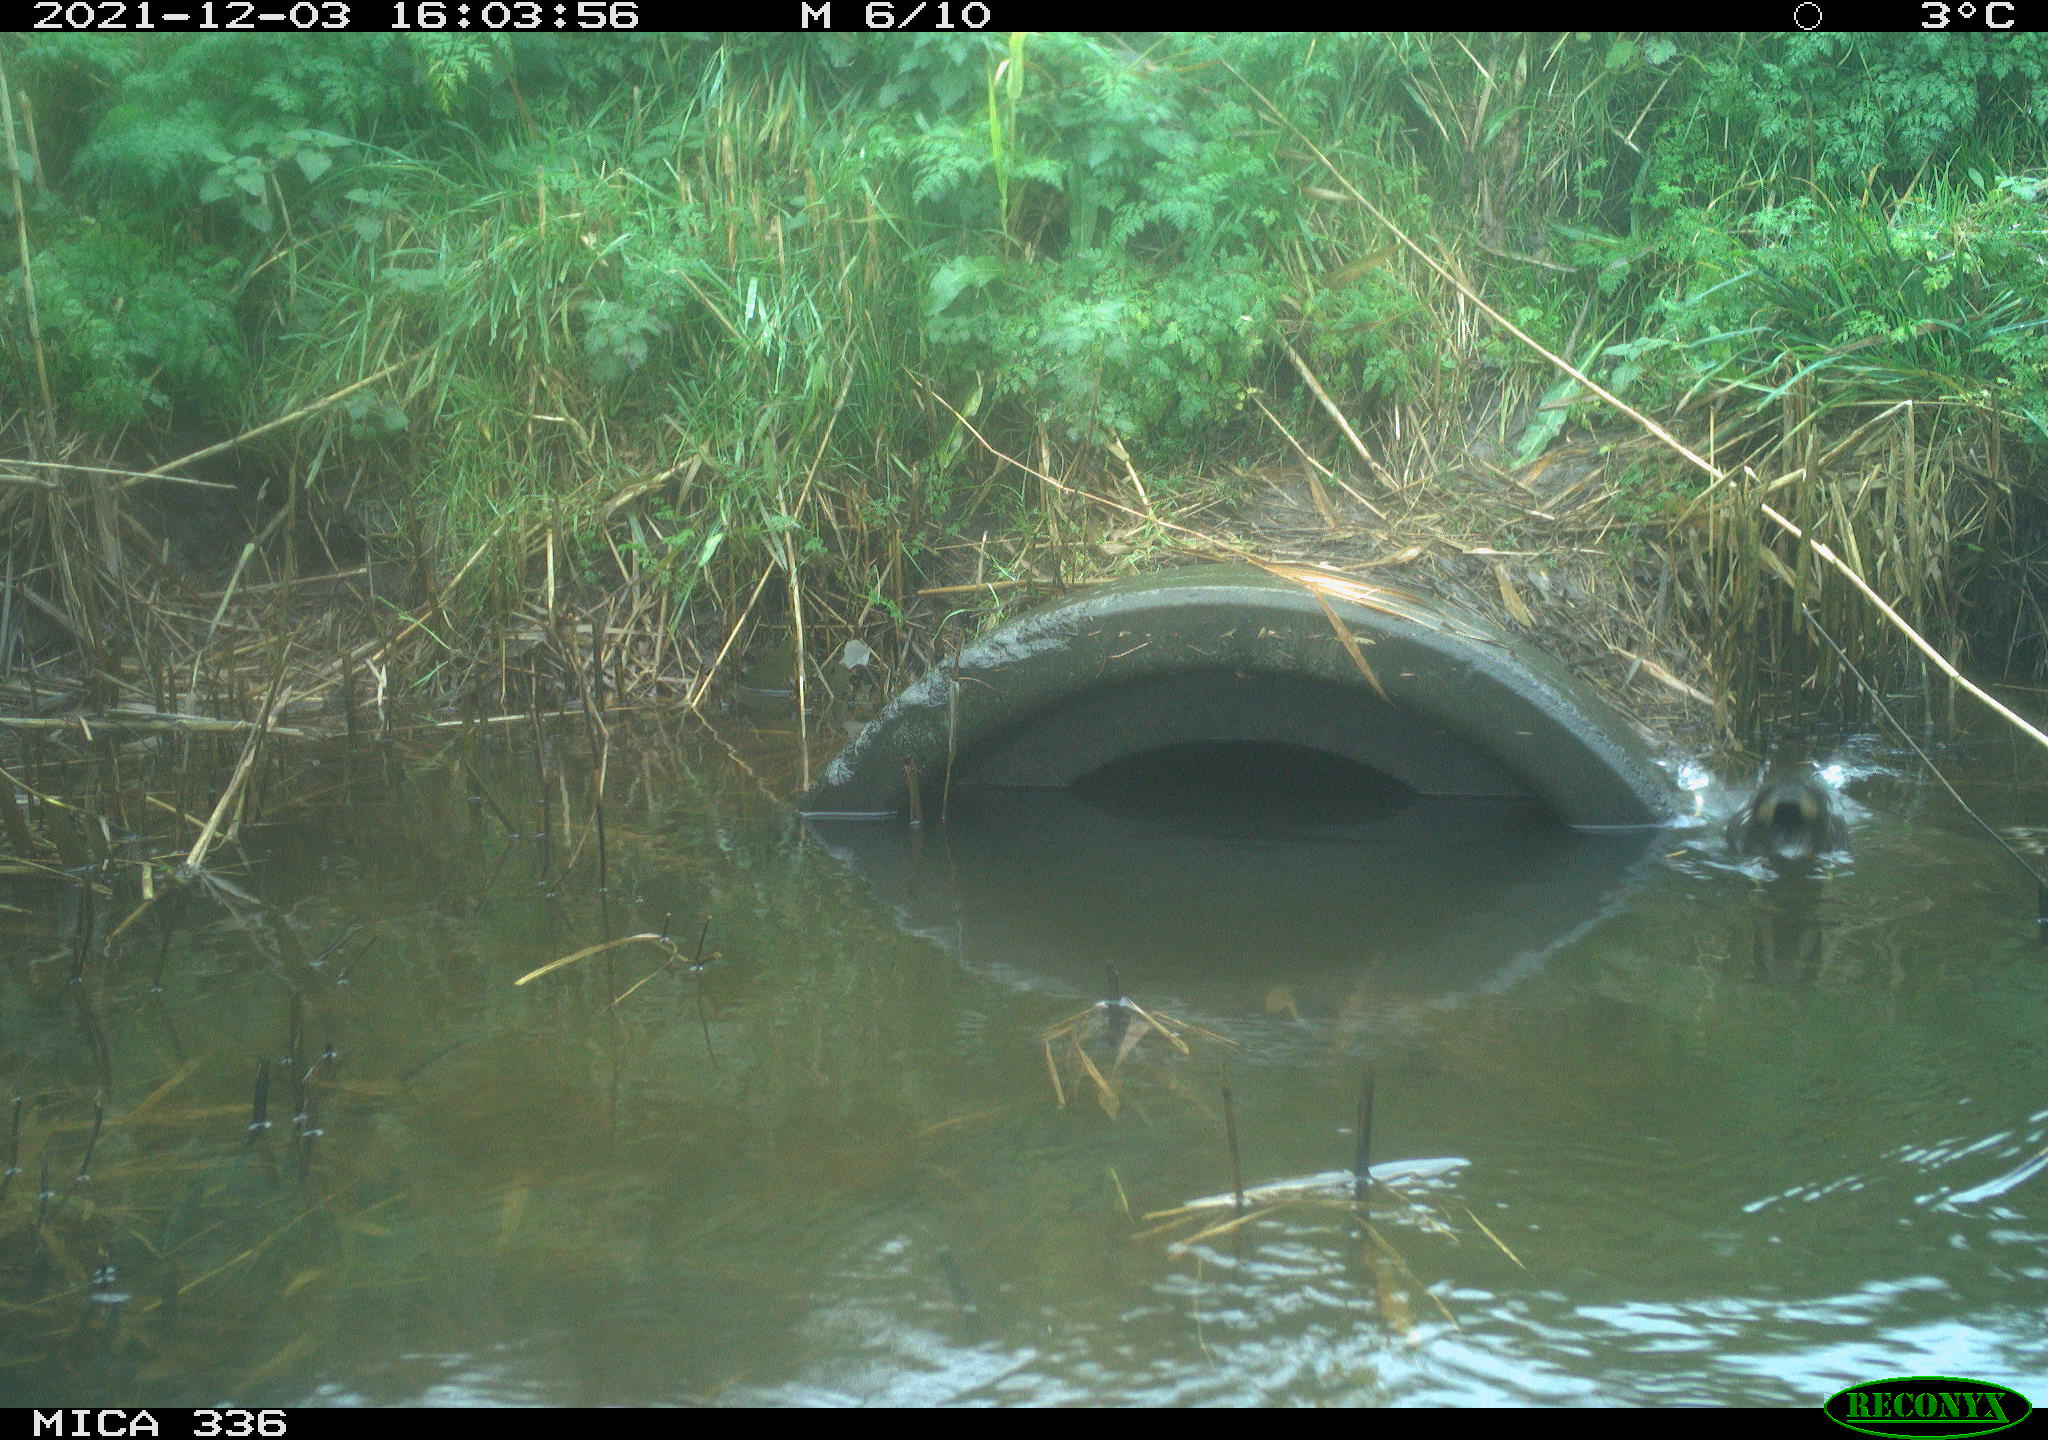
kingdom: Animalia
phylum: Chordata
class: Aves
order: Gruiformes
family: Rallidae
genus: Gallinula
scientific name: Gallinula chloropus
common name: Common moorhen
